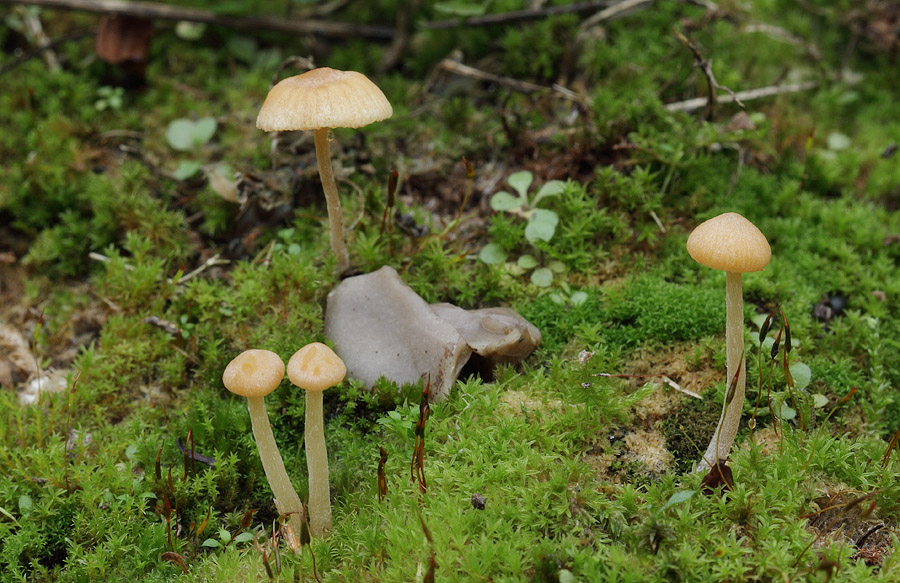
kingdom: Fungi
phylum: Basidiomycota
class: Agaricomycetes
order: Agaricales
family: Hymenogastraceae
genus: Galerina
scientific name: Galerina graminea
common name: plæne-hjelmhat
